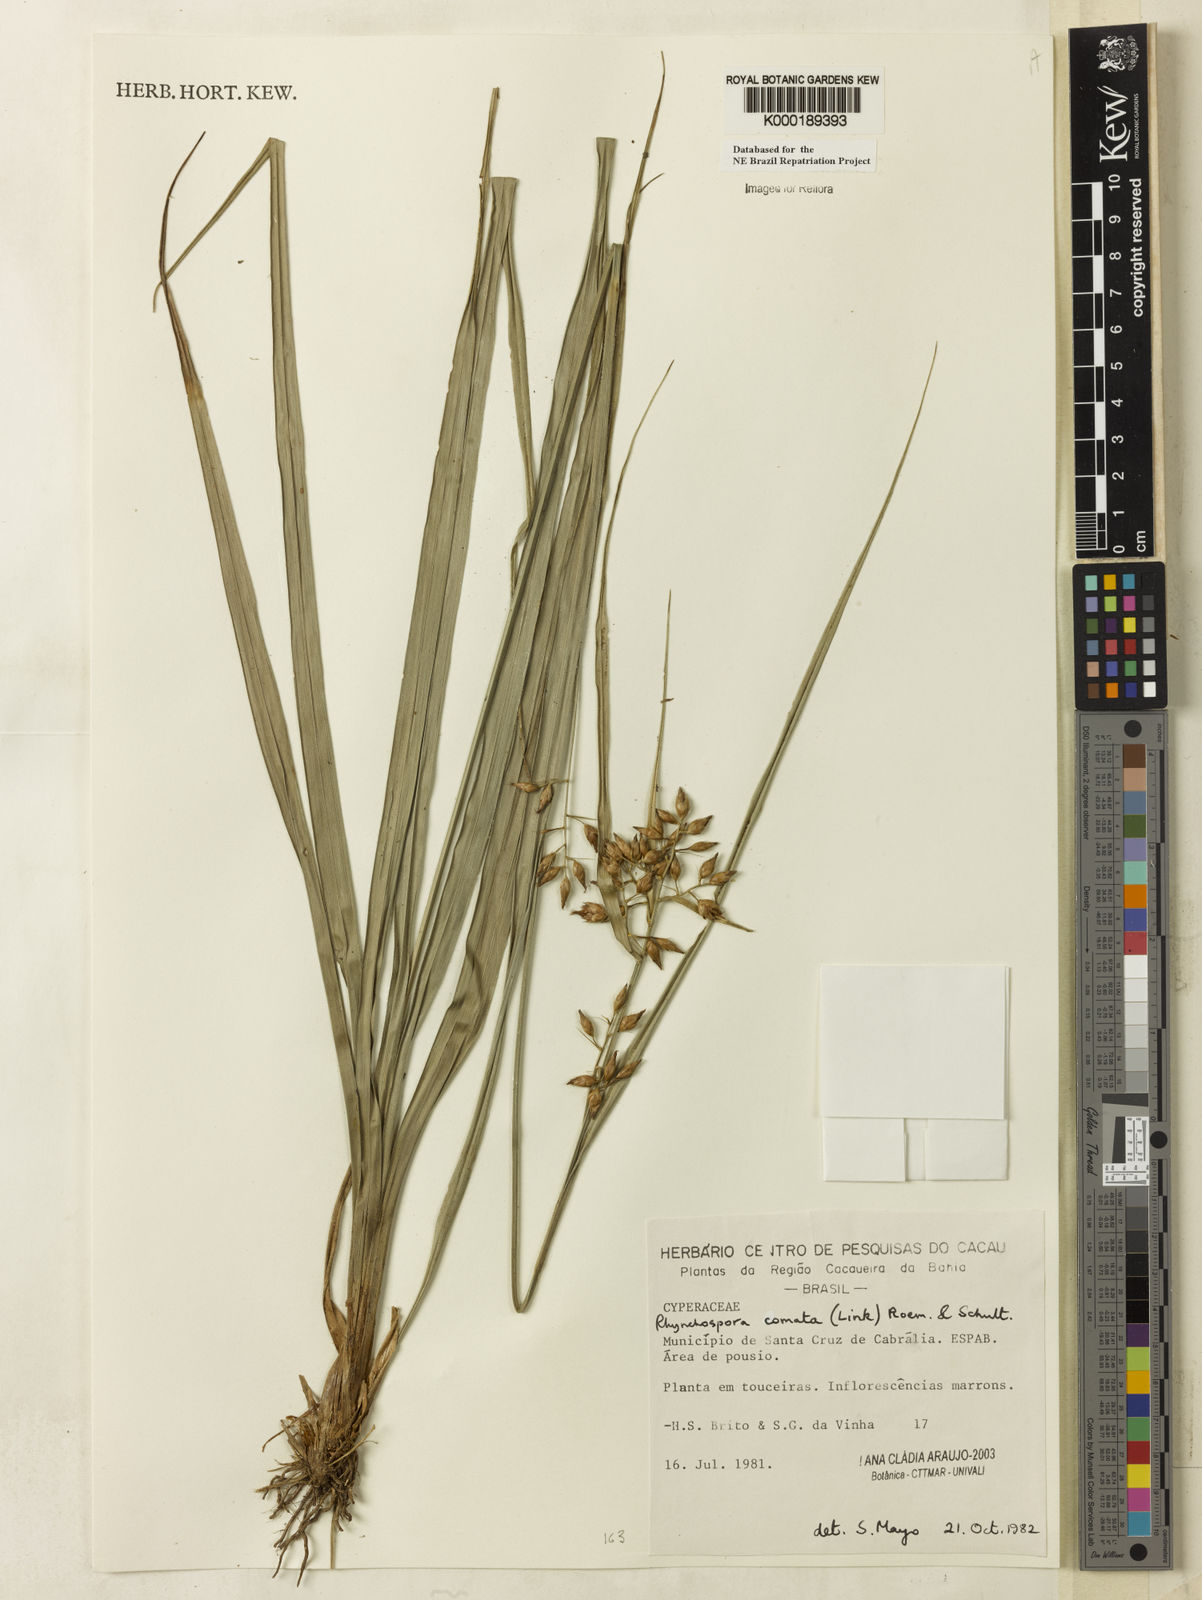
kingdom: Plantae
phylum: Tracheophyta
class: Liliopsida
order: Poales
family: Cyperaceae
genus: Rhynchospora
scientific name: Rhynchospora comata
